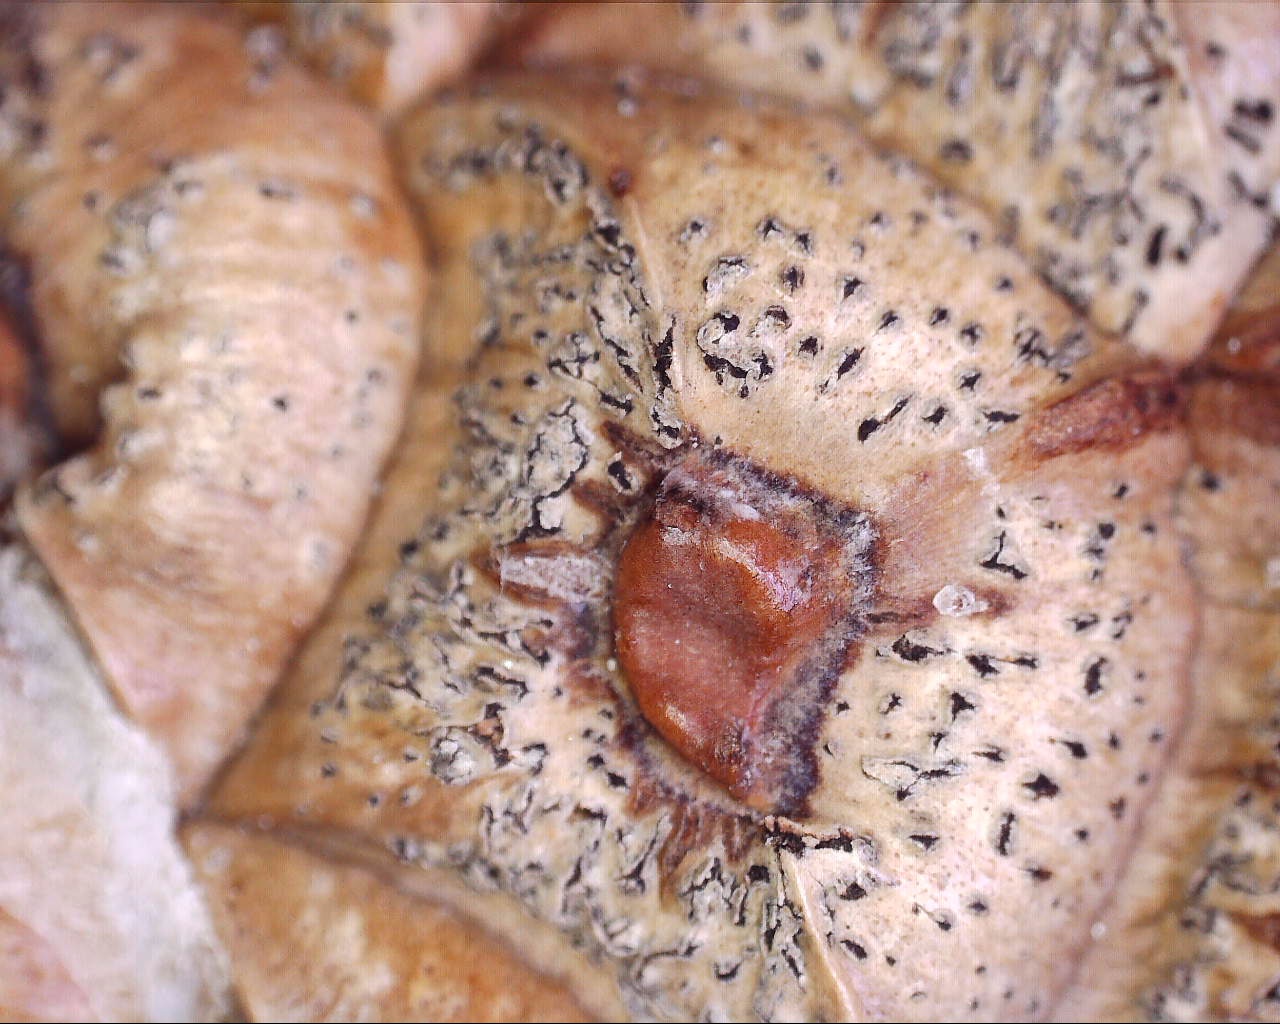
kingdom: Fungi
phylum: Ascomycota
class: Dothideomycetes
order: Botryosphaeriales
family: Botryosphaeriaceae
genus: Sphaeropsis
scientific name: Sphaeropsis sapinea
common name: Sphaeropsis blight
